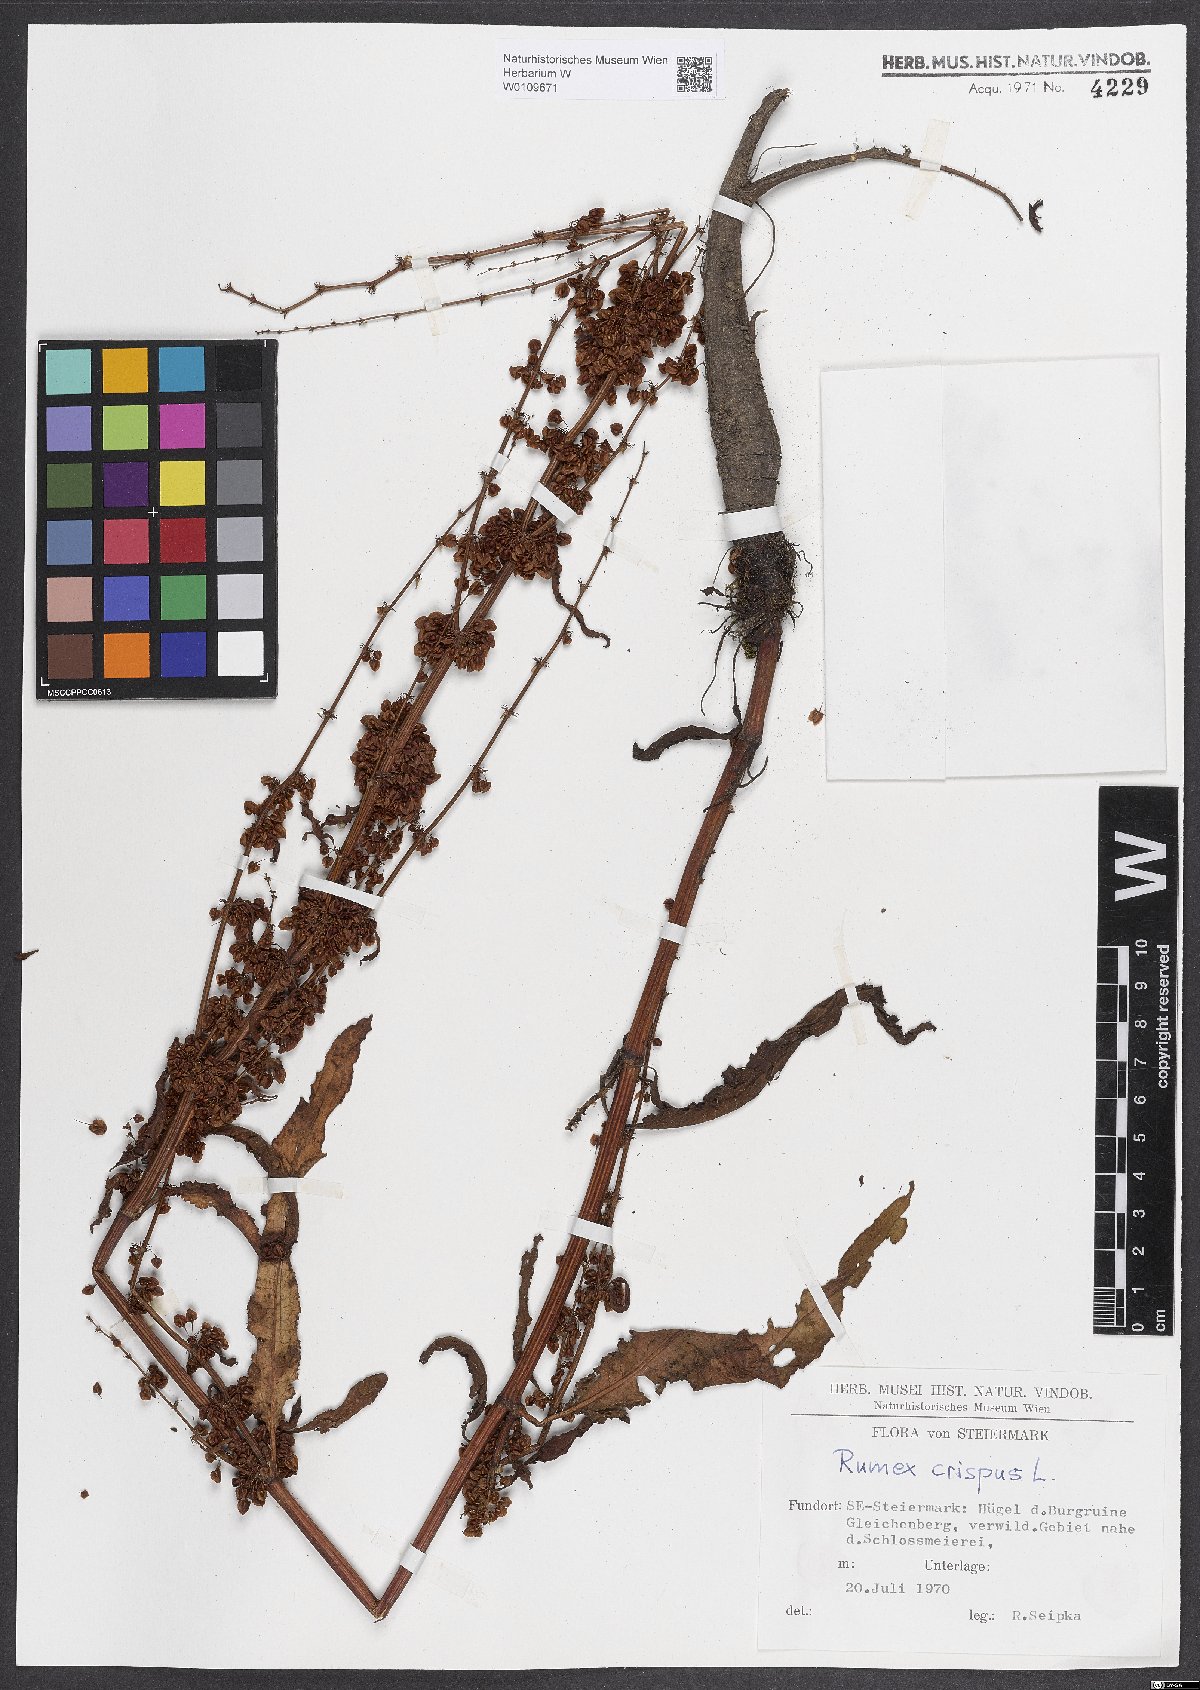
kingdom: Plantae
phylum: Tracheophyta
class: Magnoliopsida
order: Caryophyllales
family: Polygonaceae
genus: Rumex
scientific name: Rumex crispus
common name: Curled dock
